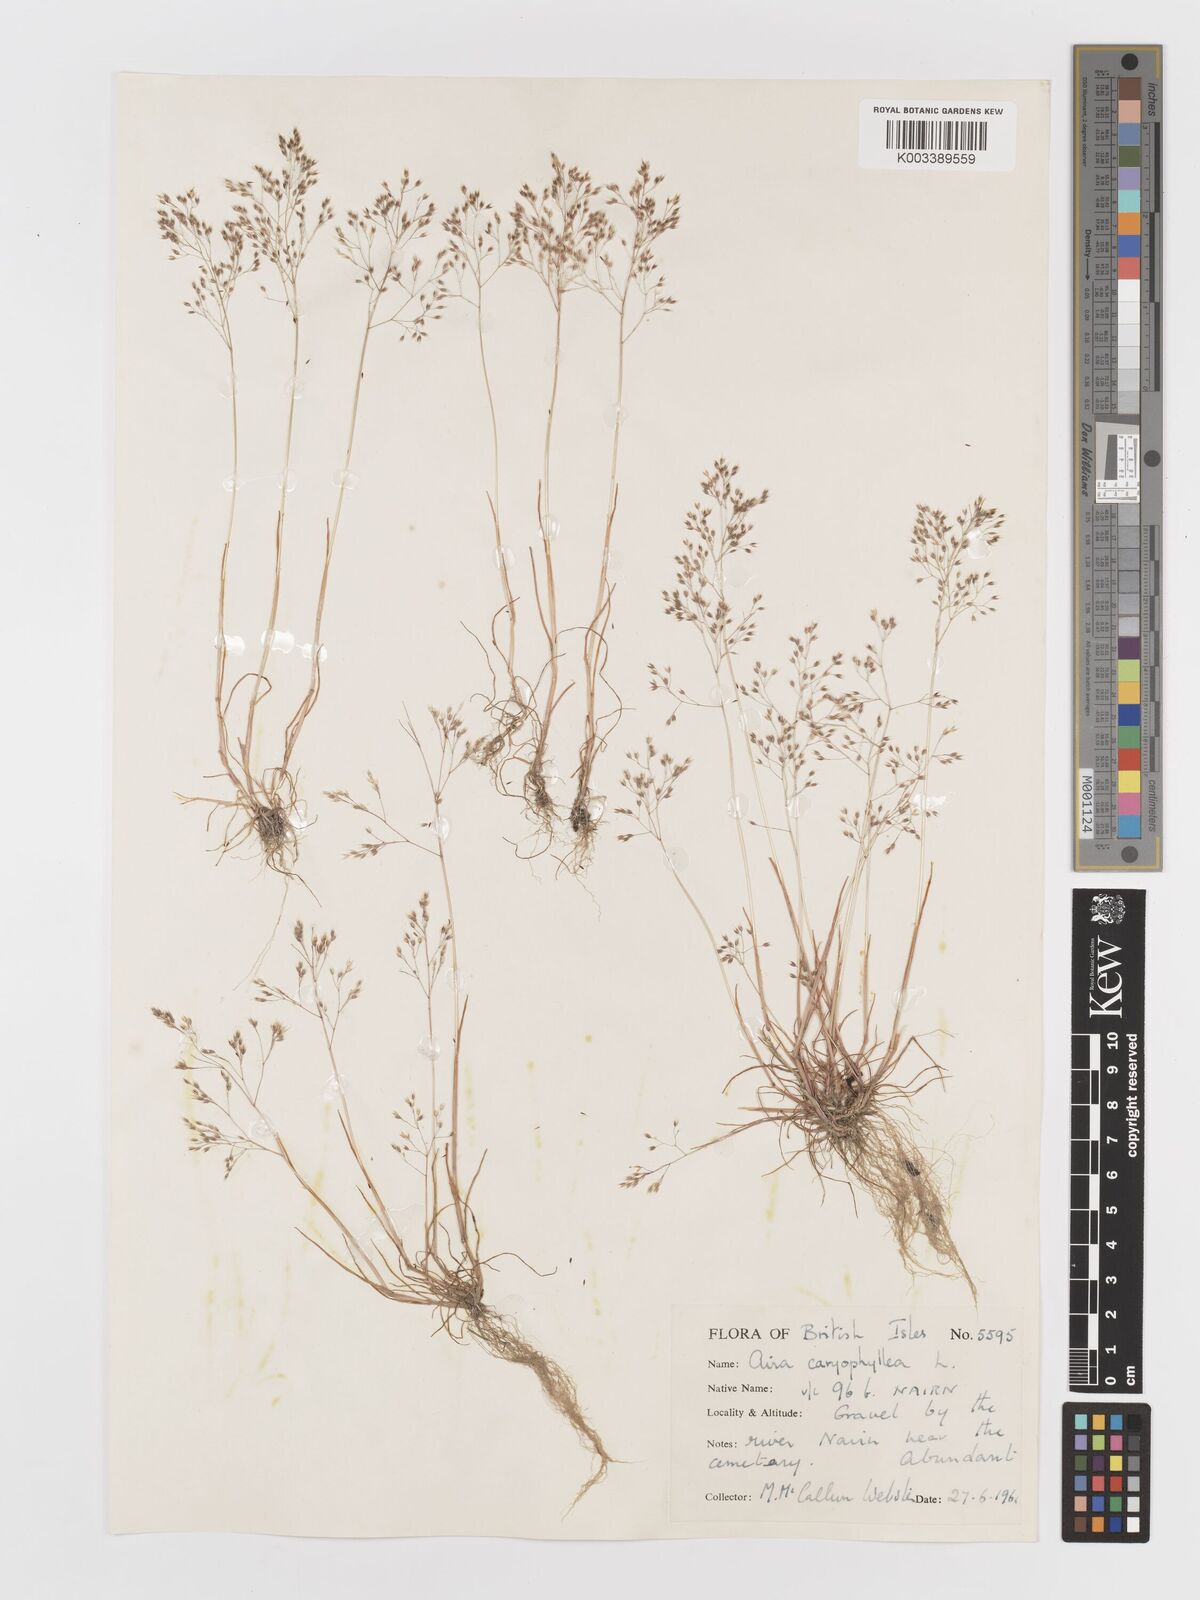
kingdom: Plantae
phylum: Tracheophyta
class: Liliopsida
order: Poales
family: Poaceae
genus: Aira
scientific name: Aira caryophyllea
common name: Silver hairgrass
